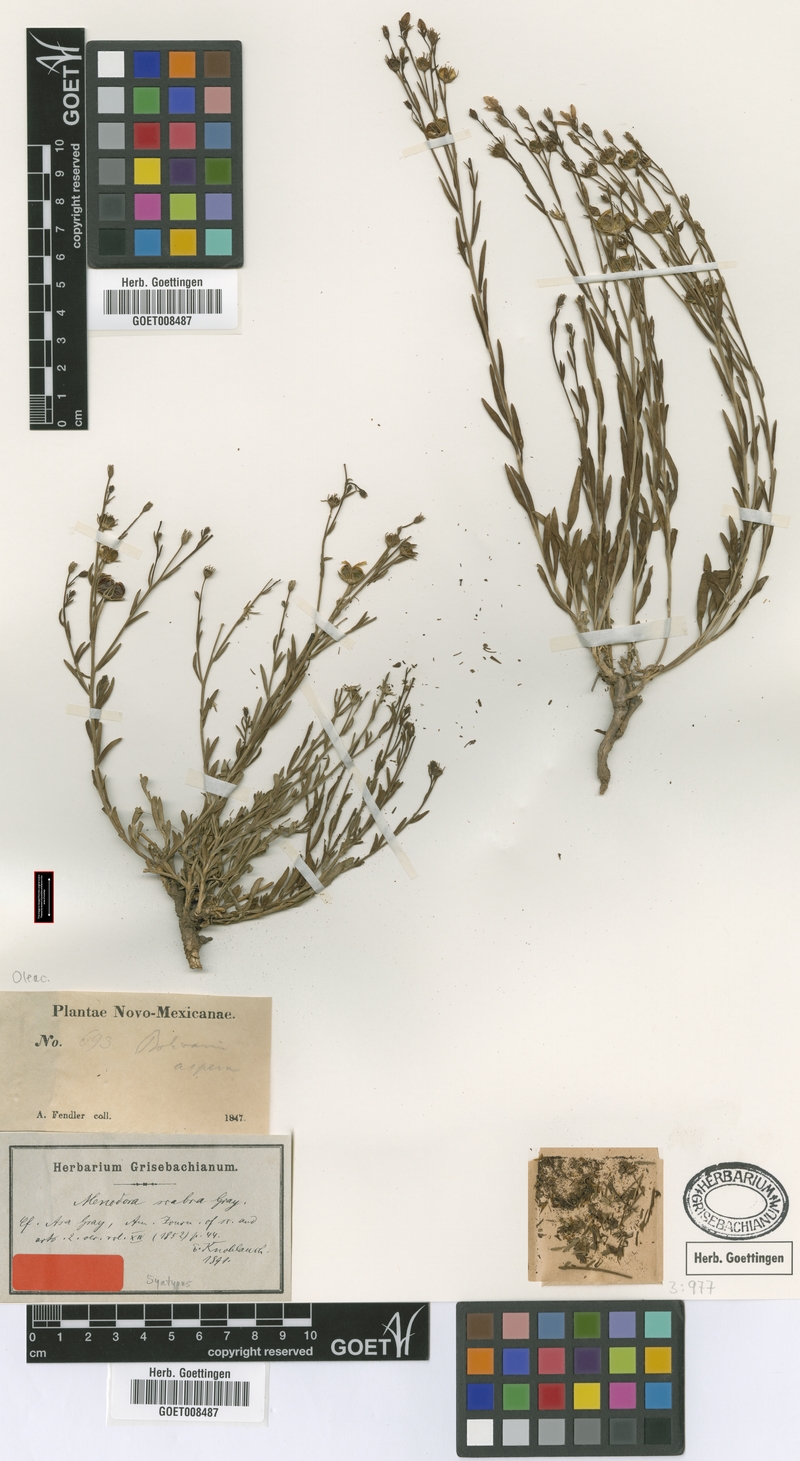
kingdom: Plantae
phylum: Tracheophyta
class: Magnoliopsida
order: Lamiales
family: Oleaceae
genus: Menodora
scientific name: Menodora scabra
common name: Rough menodora
